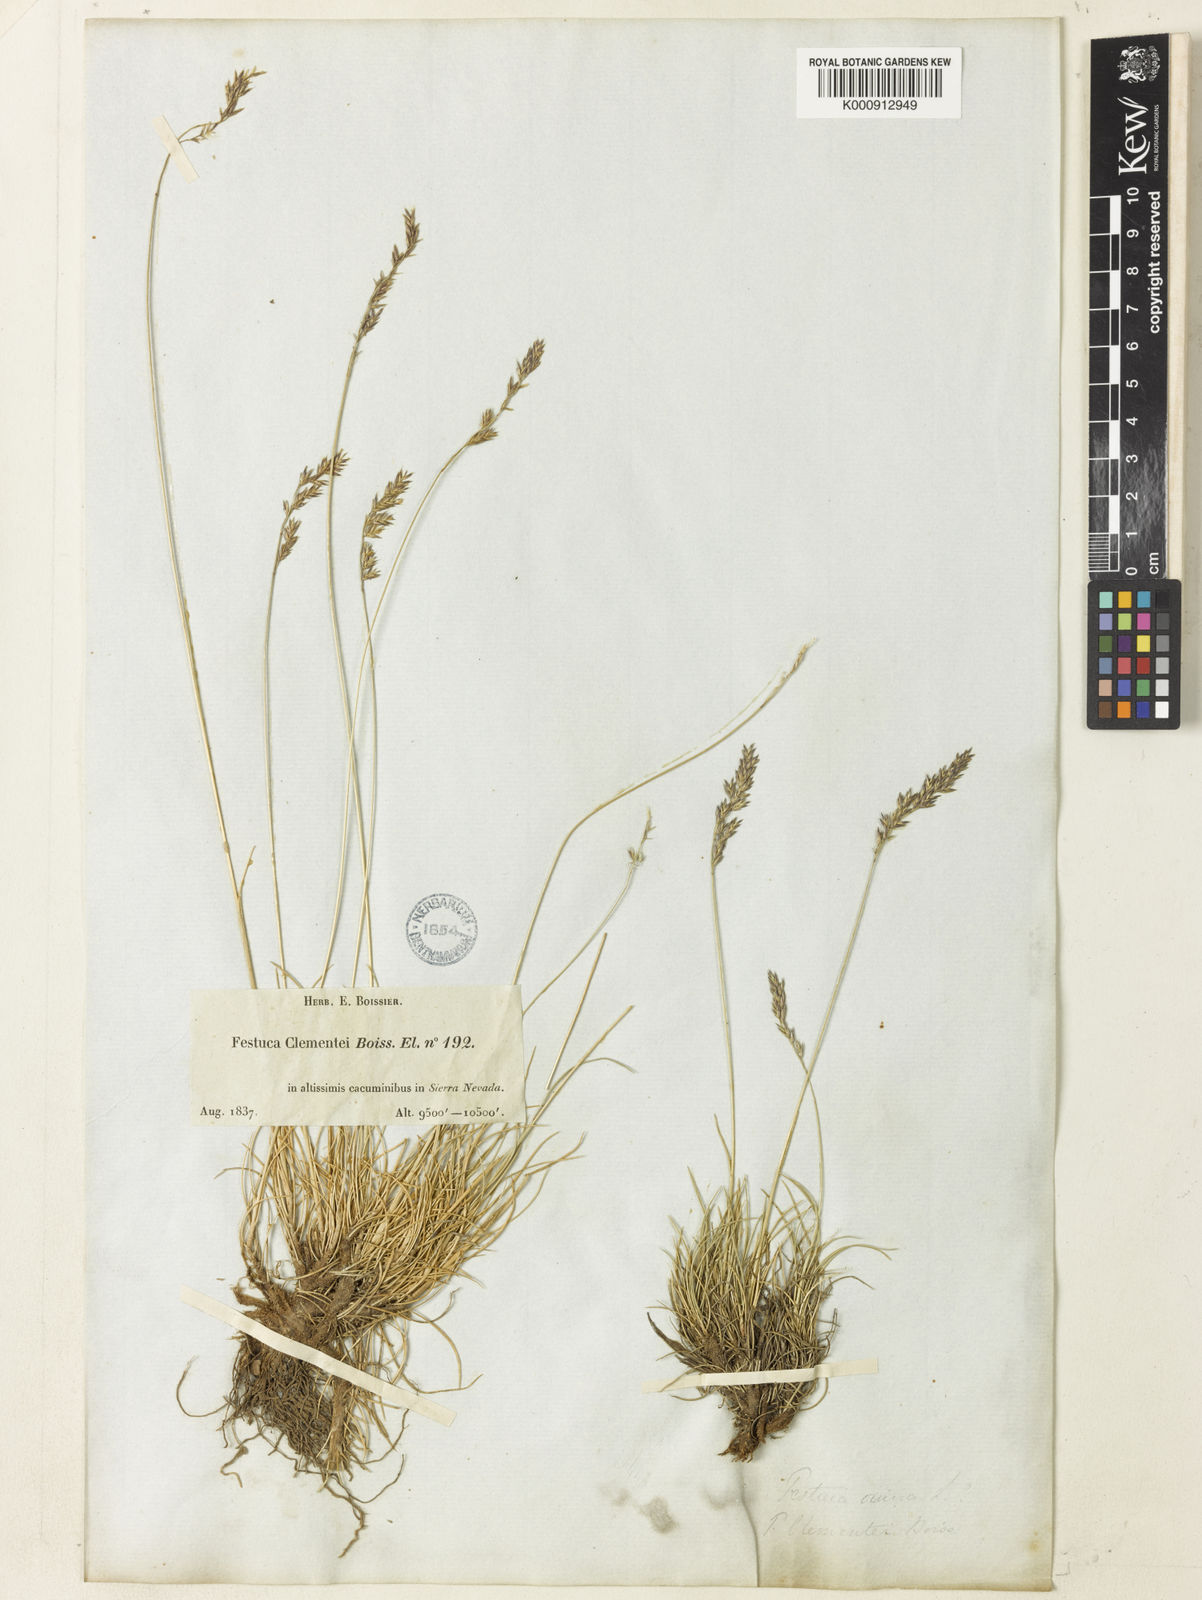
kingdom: Plantae
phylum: Tracheophyta
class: Liliopsida
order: Poales
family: Poaceae
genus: Festuca
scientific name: Festuca clementei
